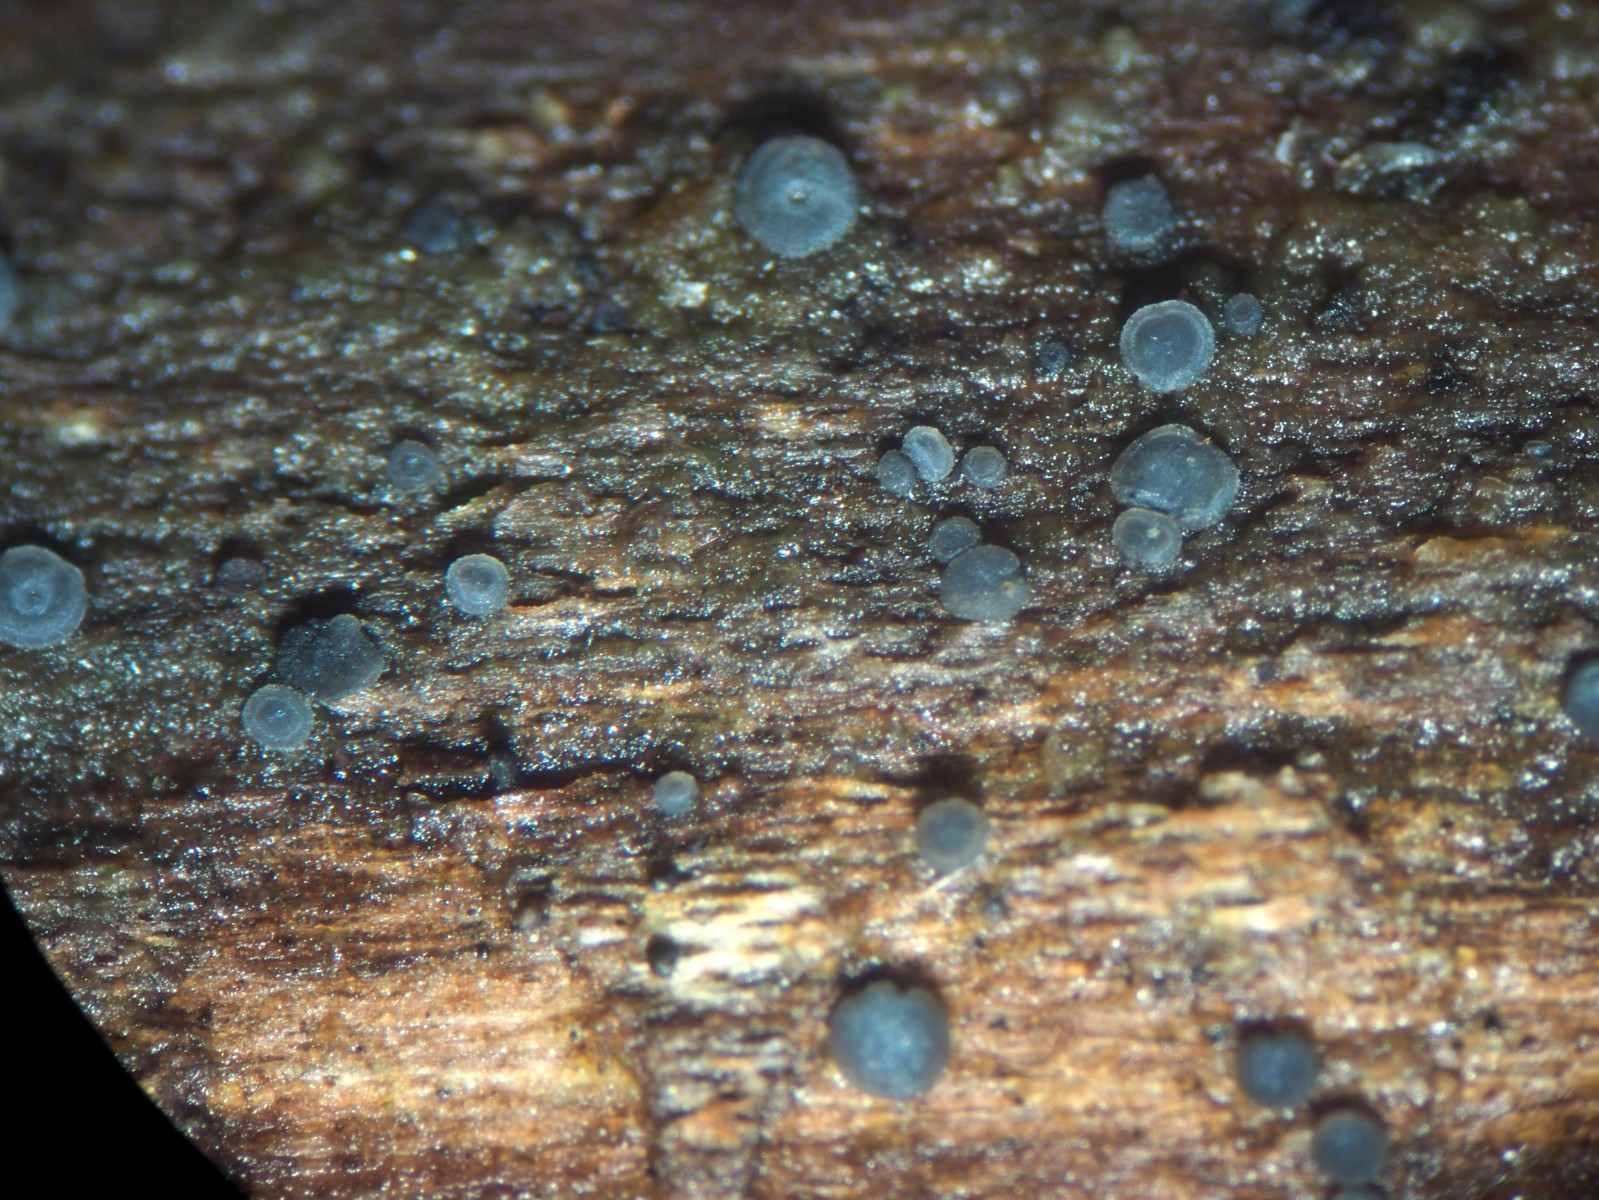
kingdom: Fungi
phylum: Ascomycota
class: Leotiomycetes
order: Helotiales
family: Mollisiaceae
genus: Mollisia
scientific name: Mollisia
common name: gråskive
